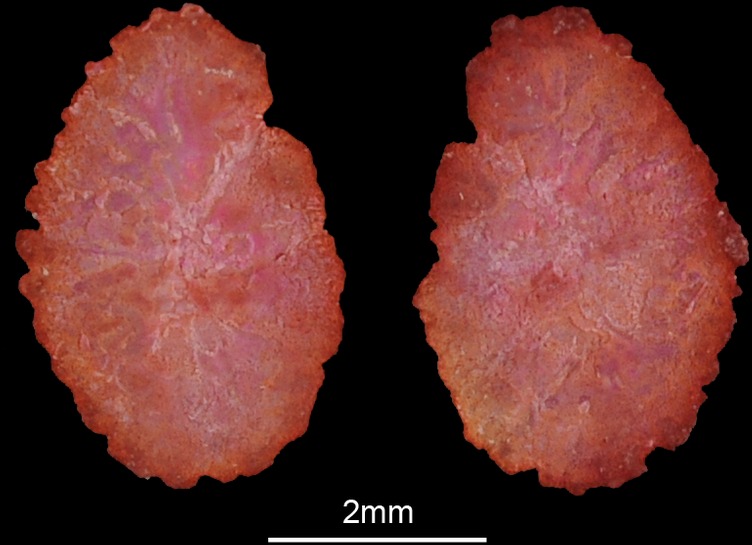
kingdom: Animalia
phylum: Chordata
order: Perciformes
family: Cichlidae
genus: Coptodon
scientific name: Coptodon rendalli
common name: Redbreast tilapia
